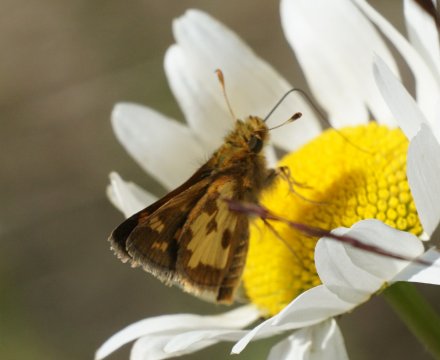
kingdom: Animalia
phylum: Arthropoda
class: Insecta
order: Lepidoptera
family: Hesperiidae
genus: Polites
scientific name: Polites coras
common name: Peck's Skipper
